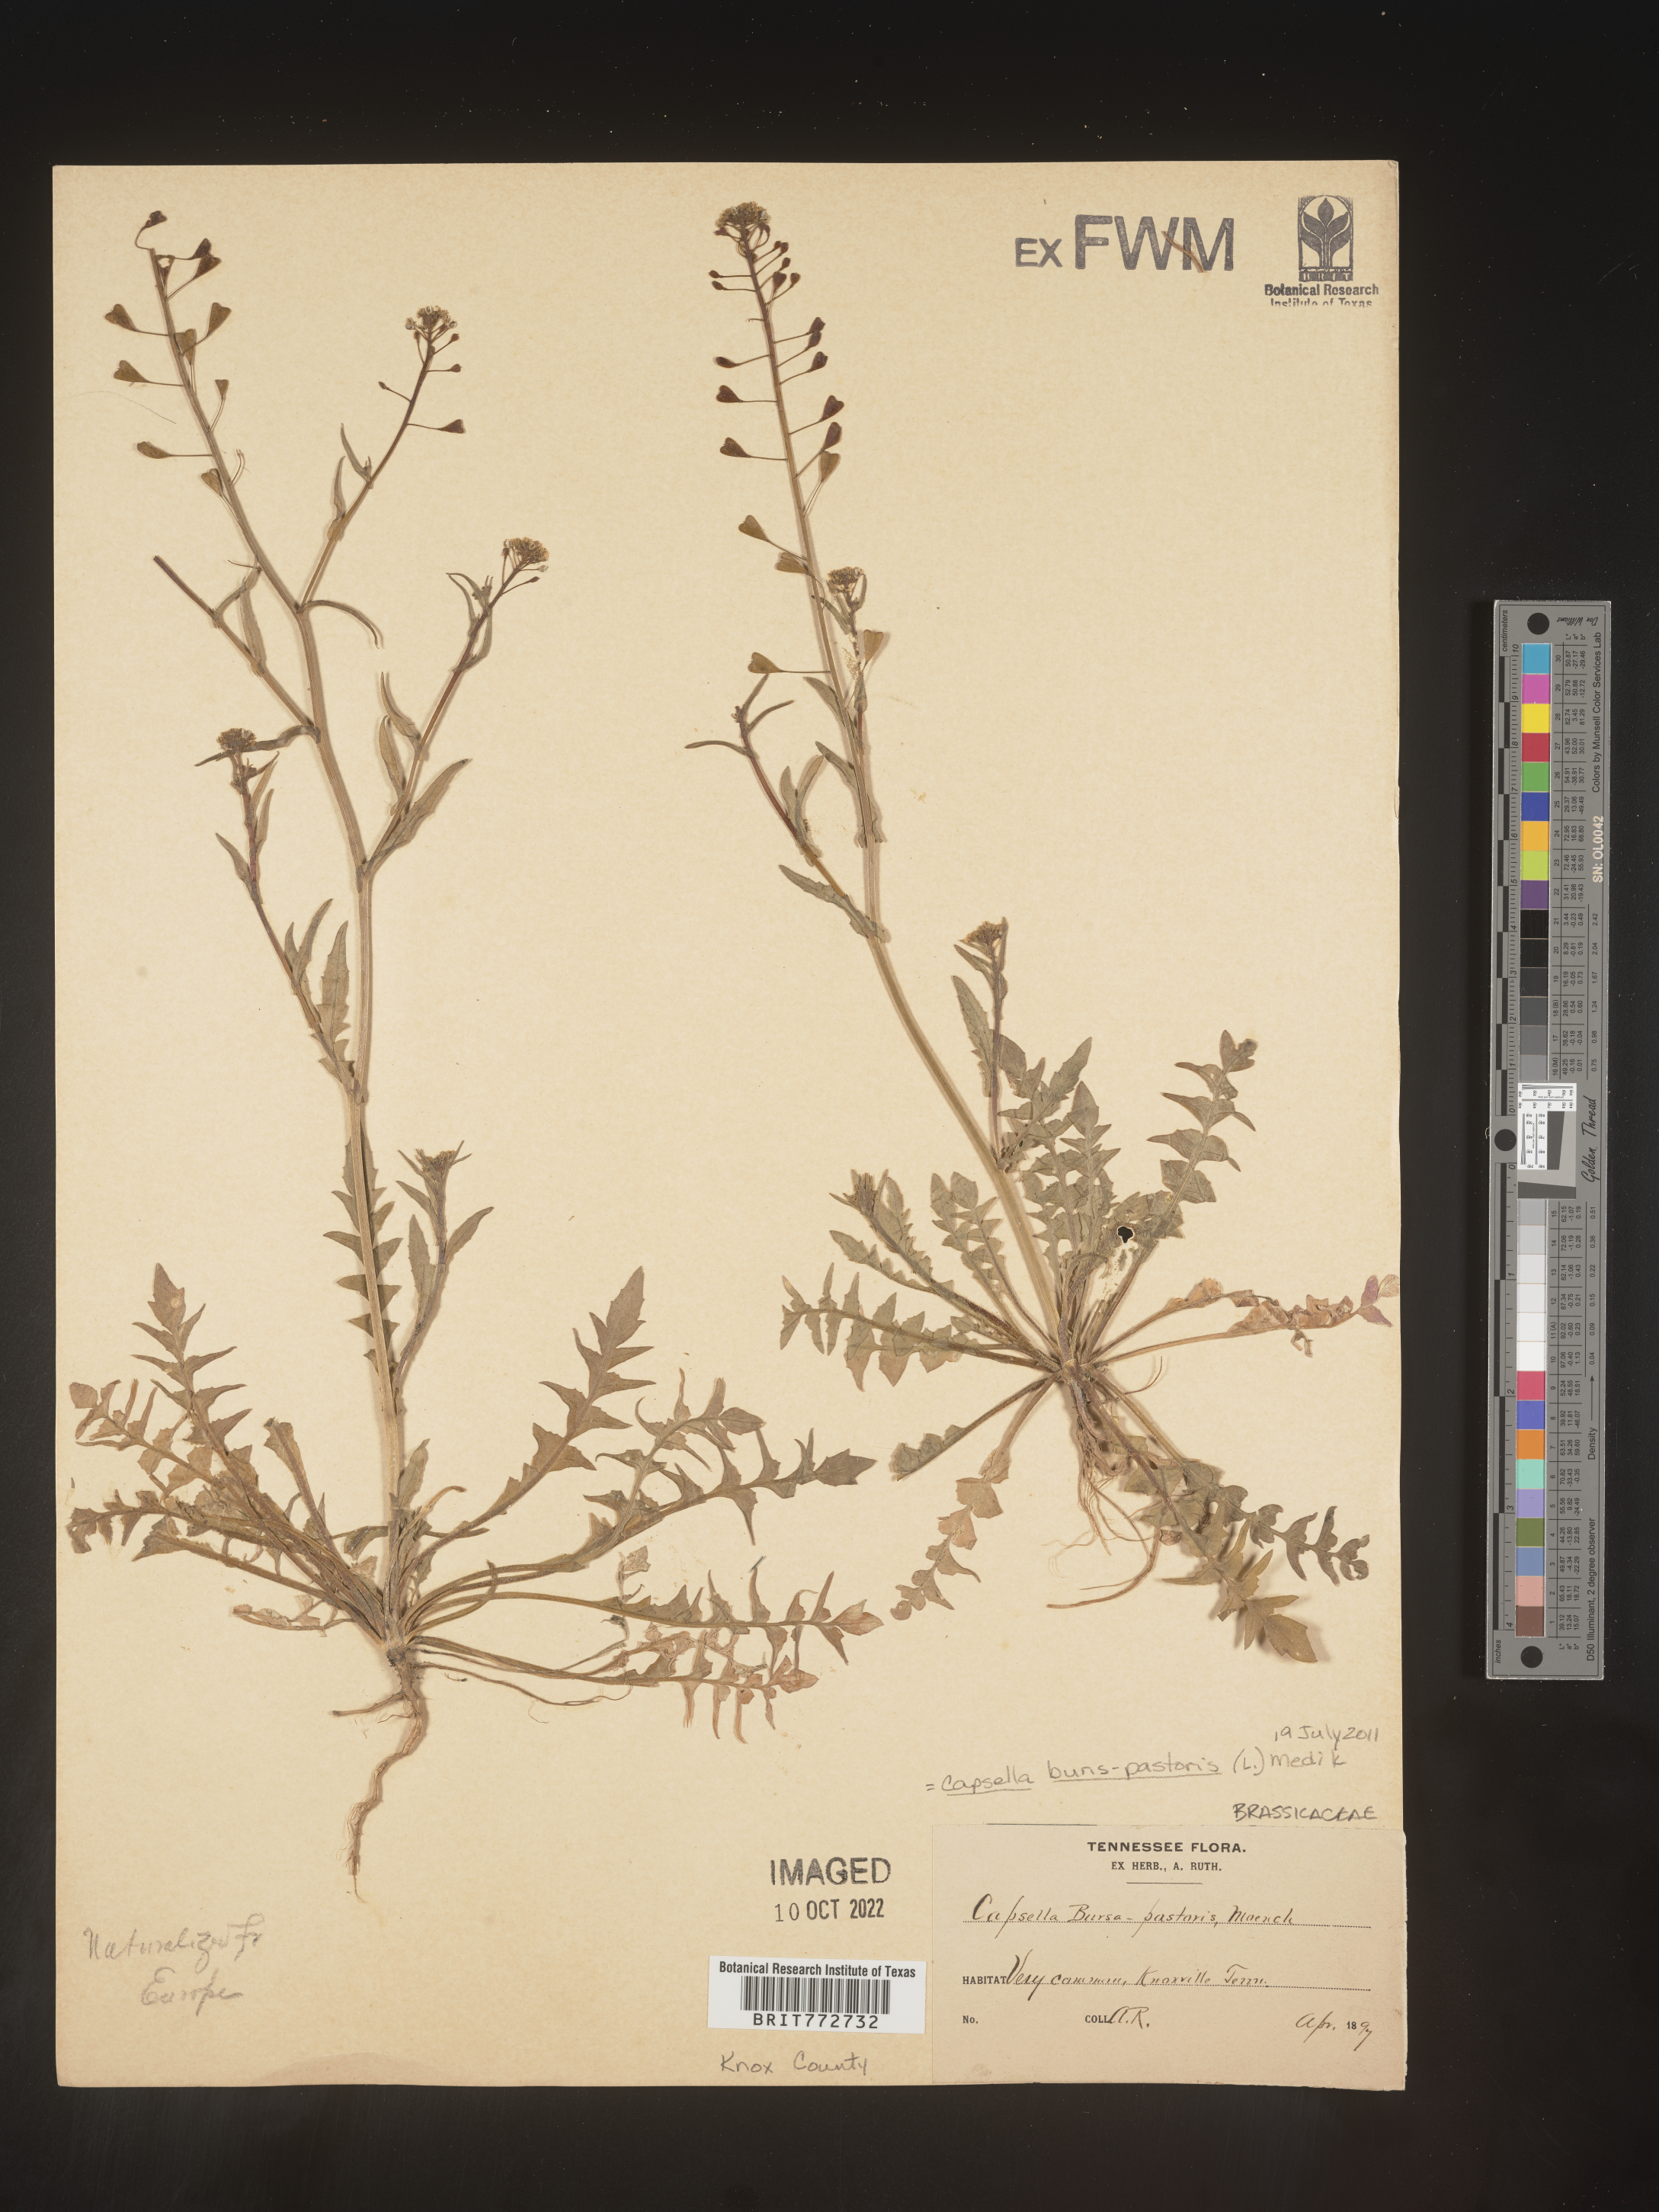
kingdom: Plantae
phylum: Tracheophyta
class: Magnoliopsida
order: Brassicales
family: Brassicaceae
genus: Capsella
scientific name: Capsella bursa-pastoris
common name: Shepherd's purse
